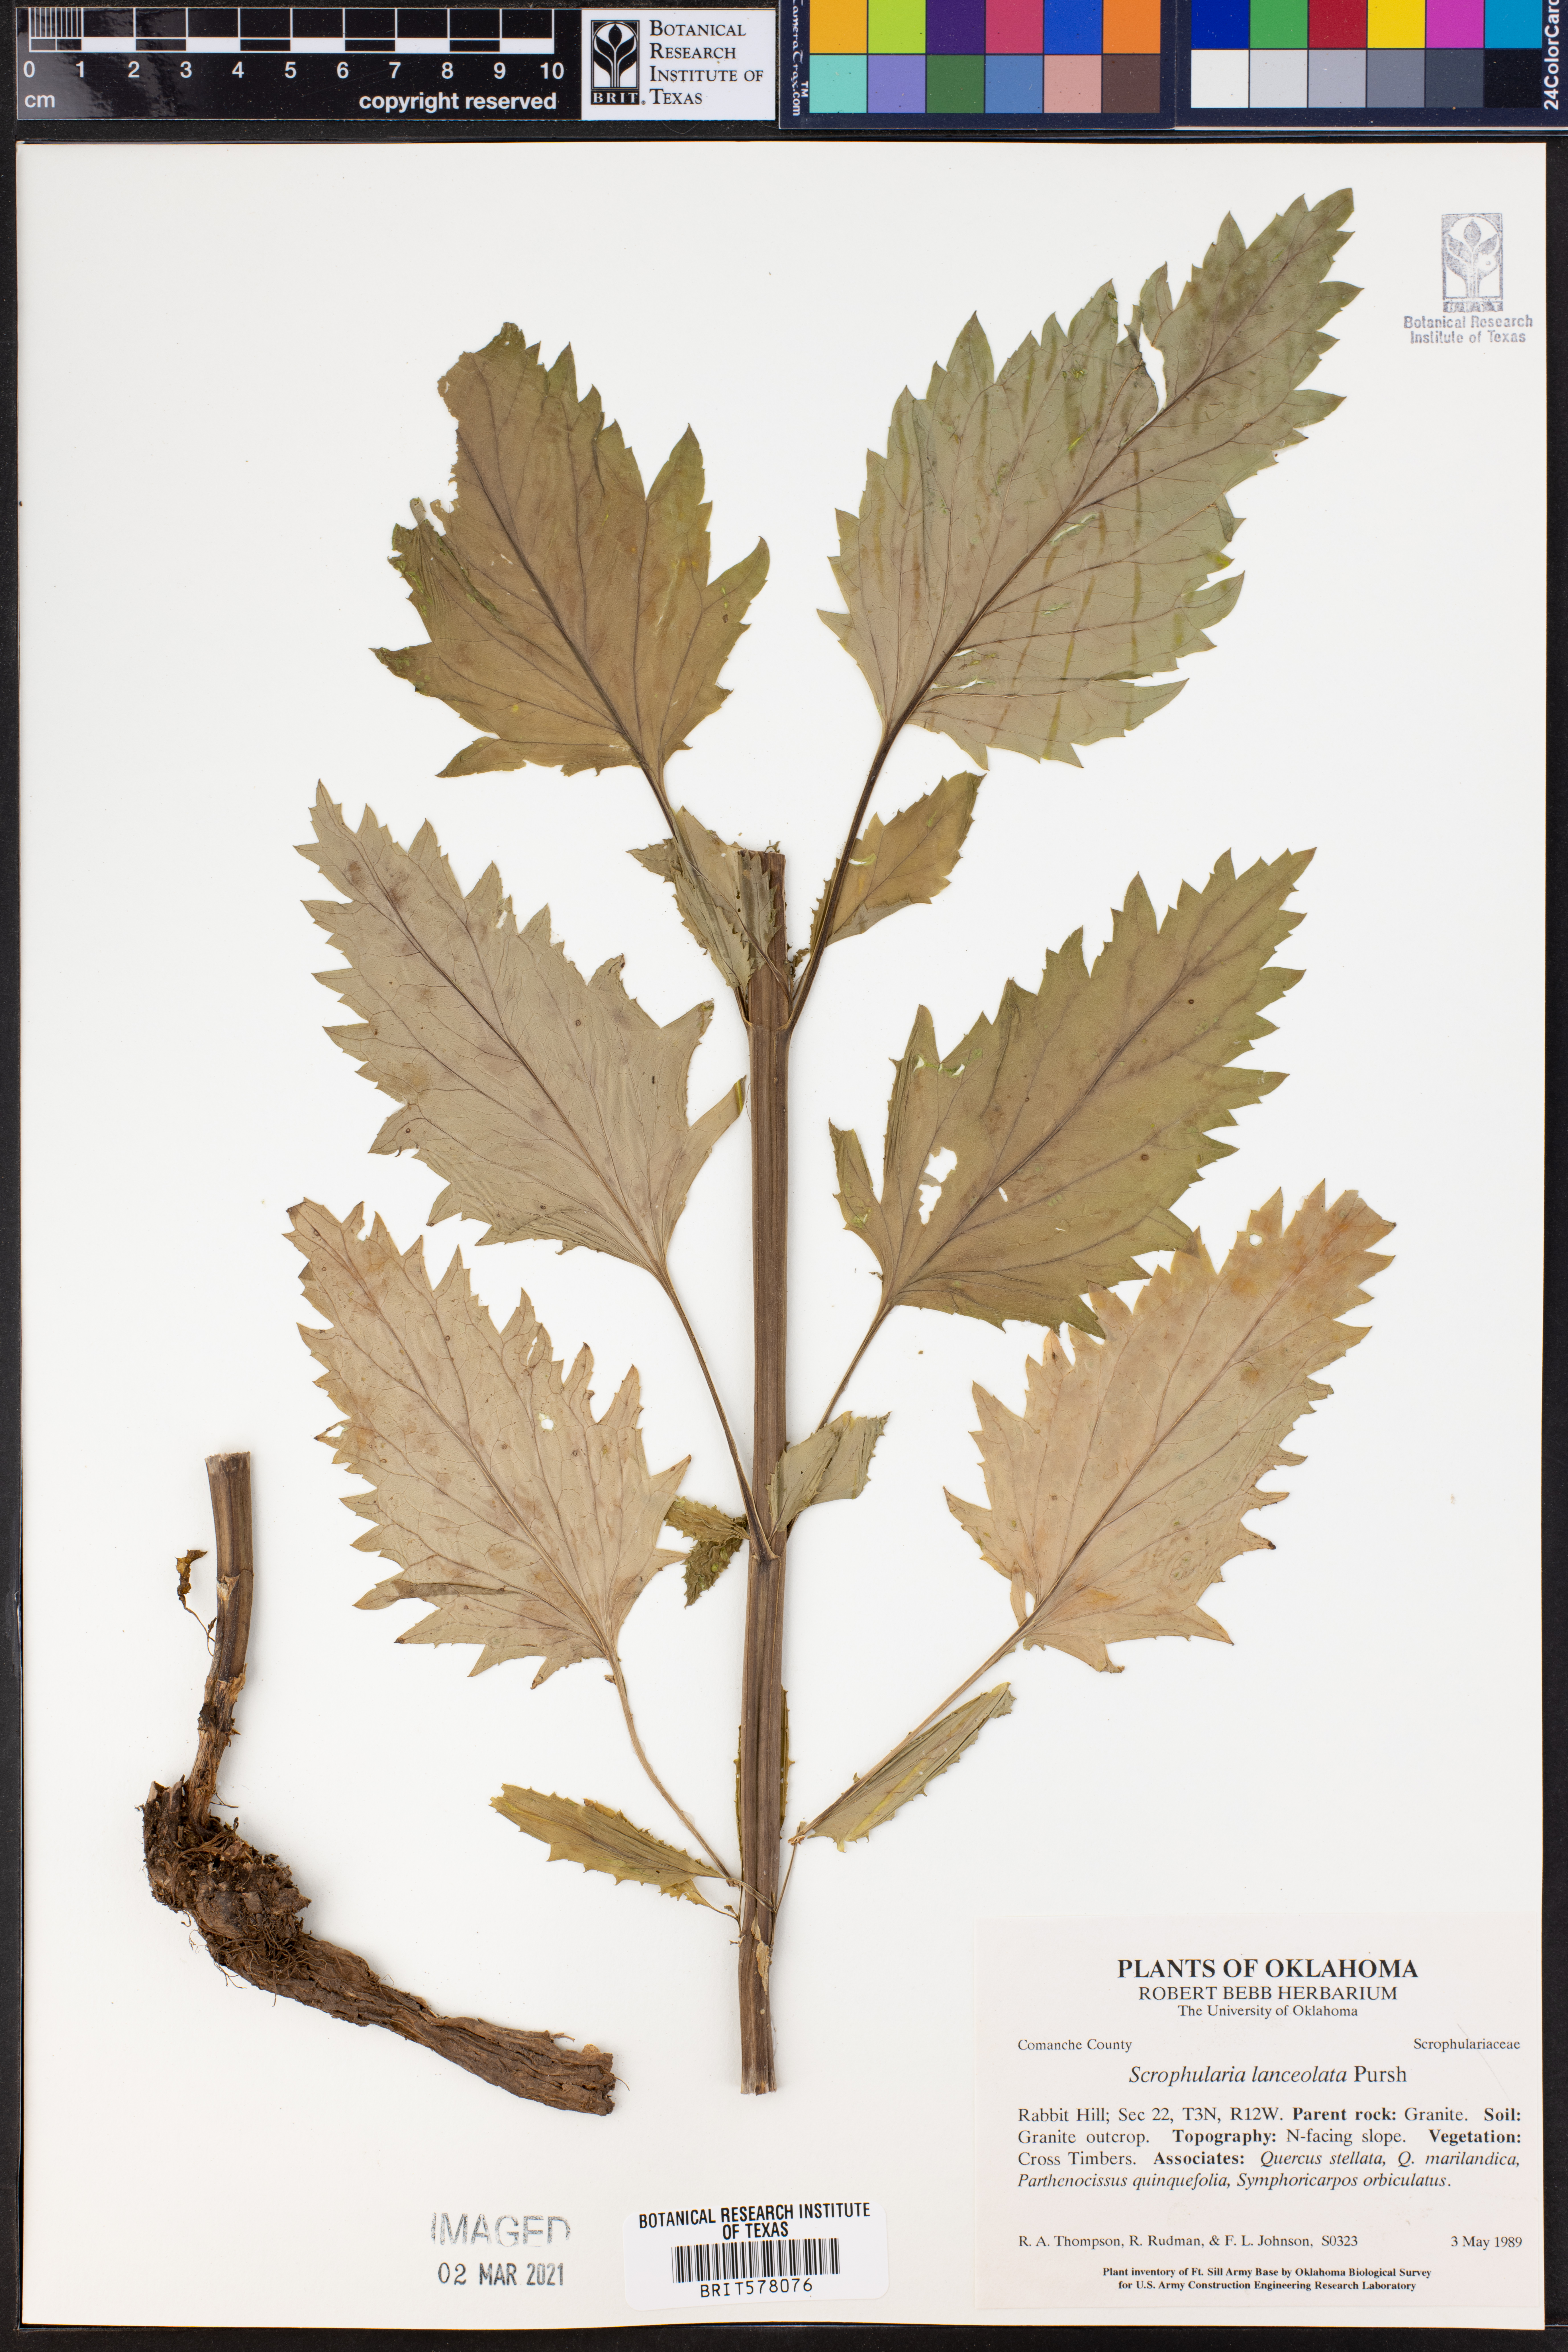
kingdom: Plantae
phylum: Tracheophyta
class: Magnoliopsida
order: Lamiales
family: Scrophulariaceae
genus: Scrophularia
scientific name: Scrophularia lanceolata
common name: American figwort
